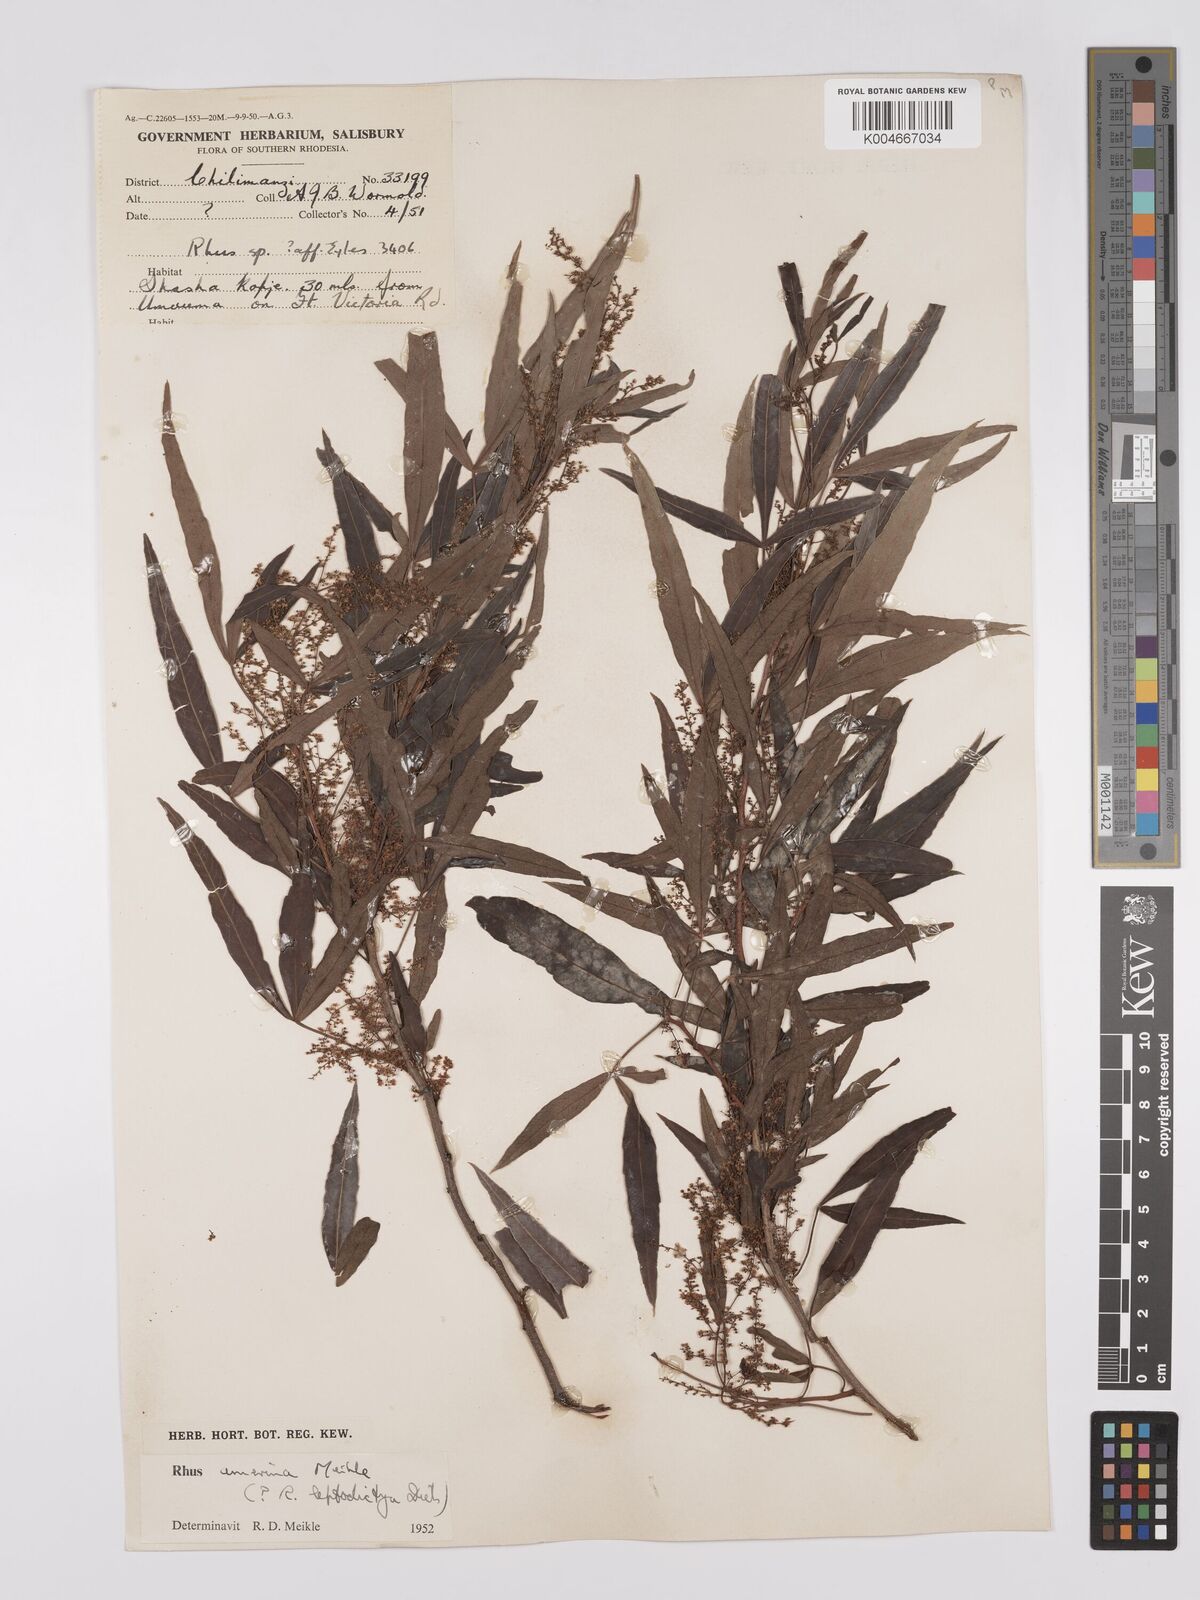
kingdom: Plantae
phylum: Tracheophyta
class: Magnoliopsida
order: Sapindales
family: Anacardiaceae
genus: Searsia
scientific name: Searsia leptodictya
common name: Mountain karee
